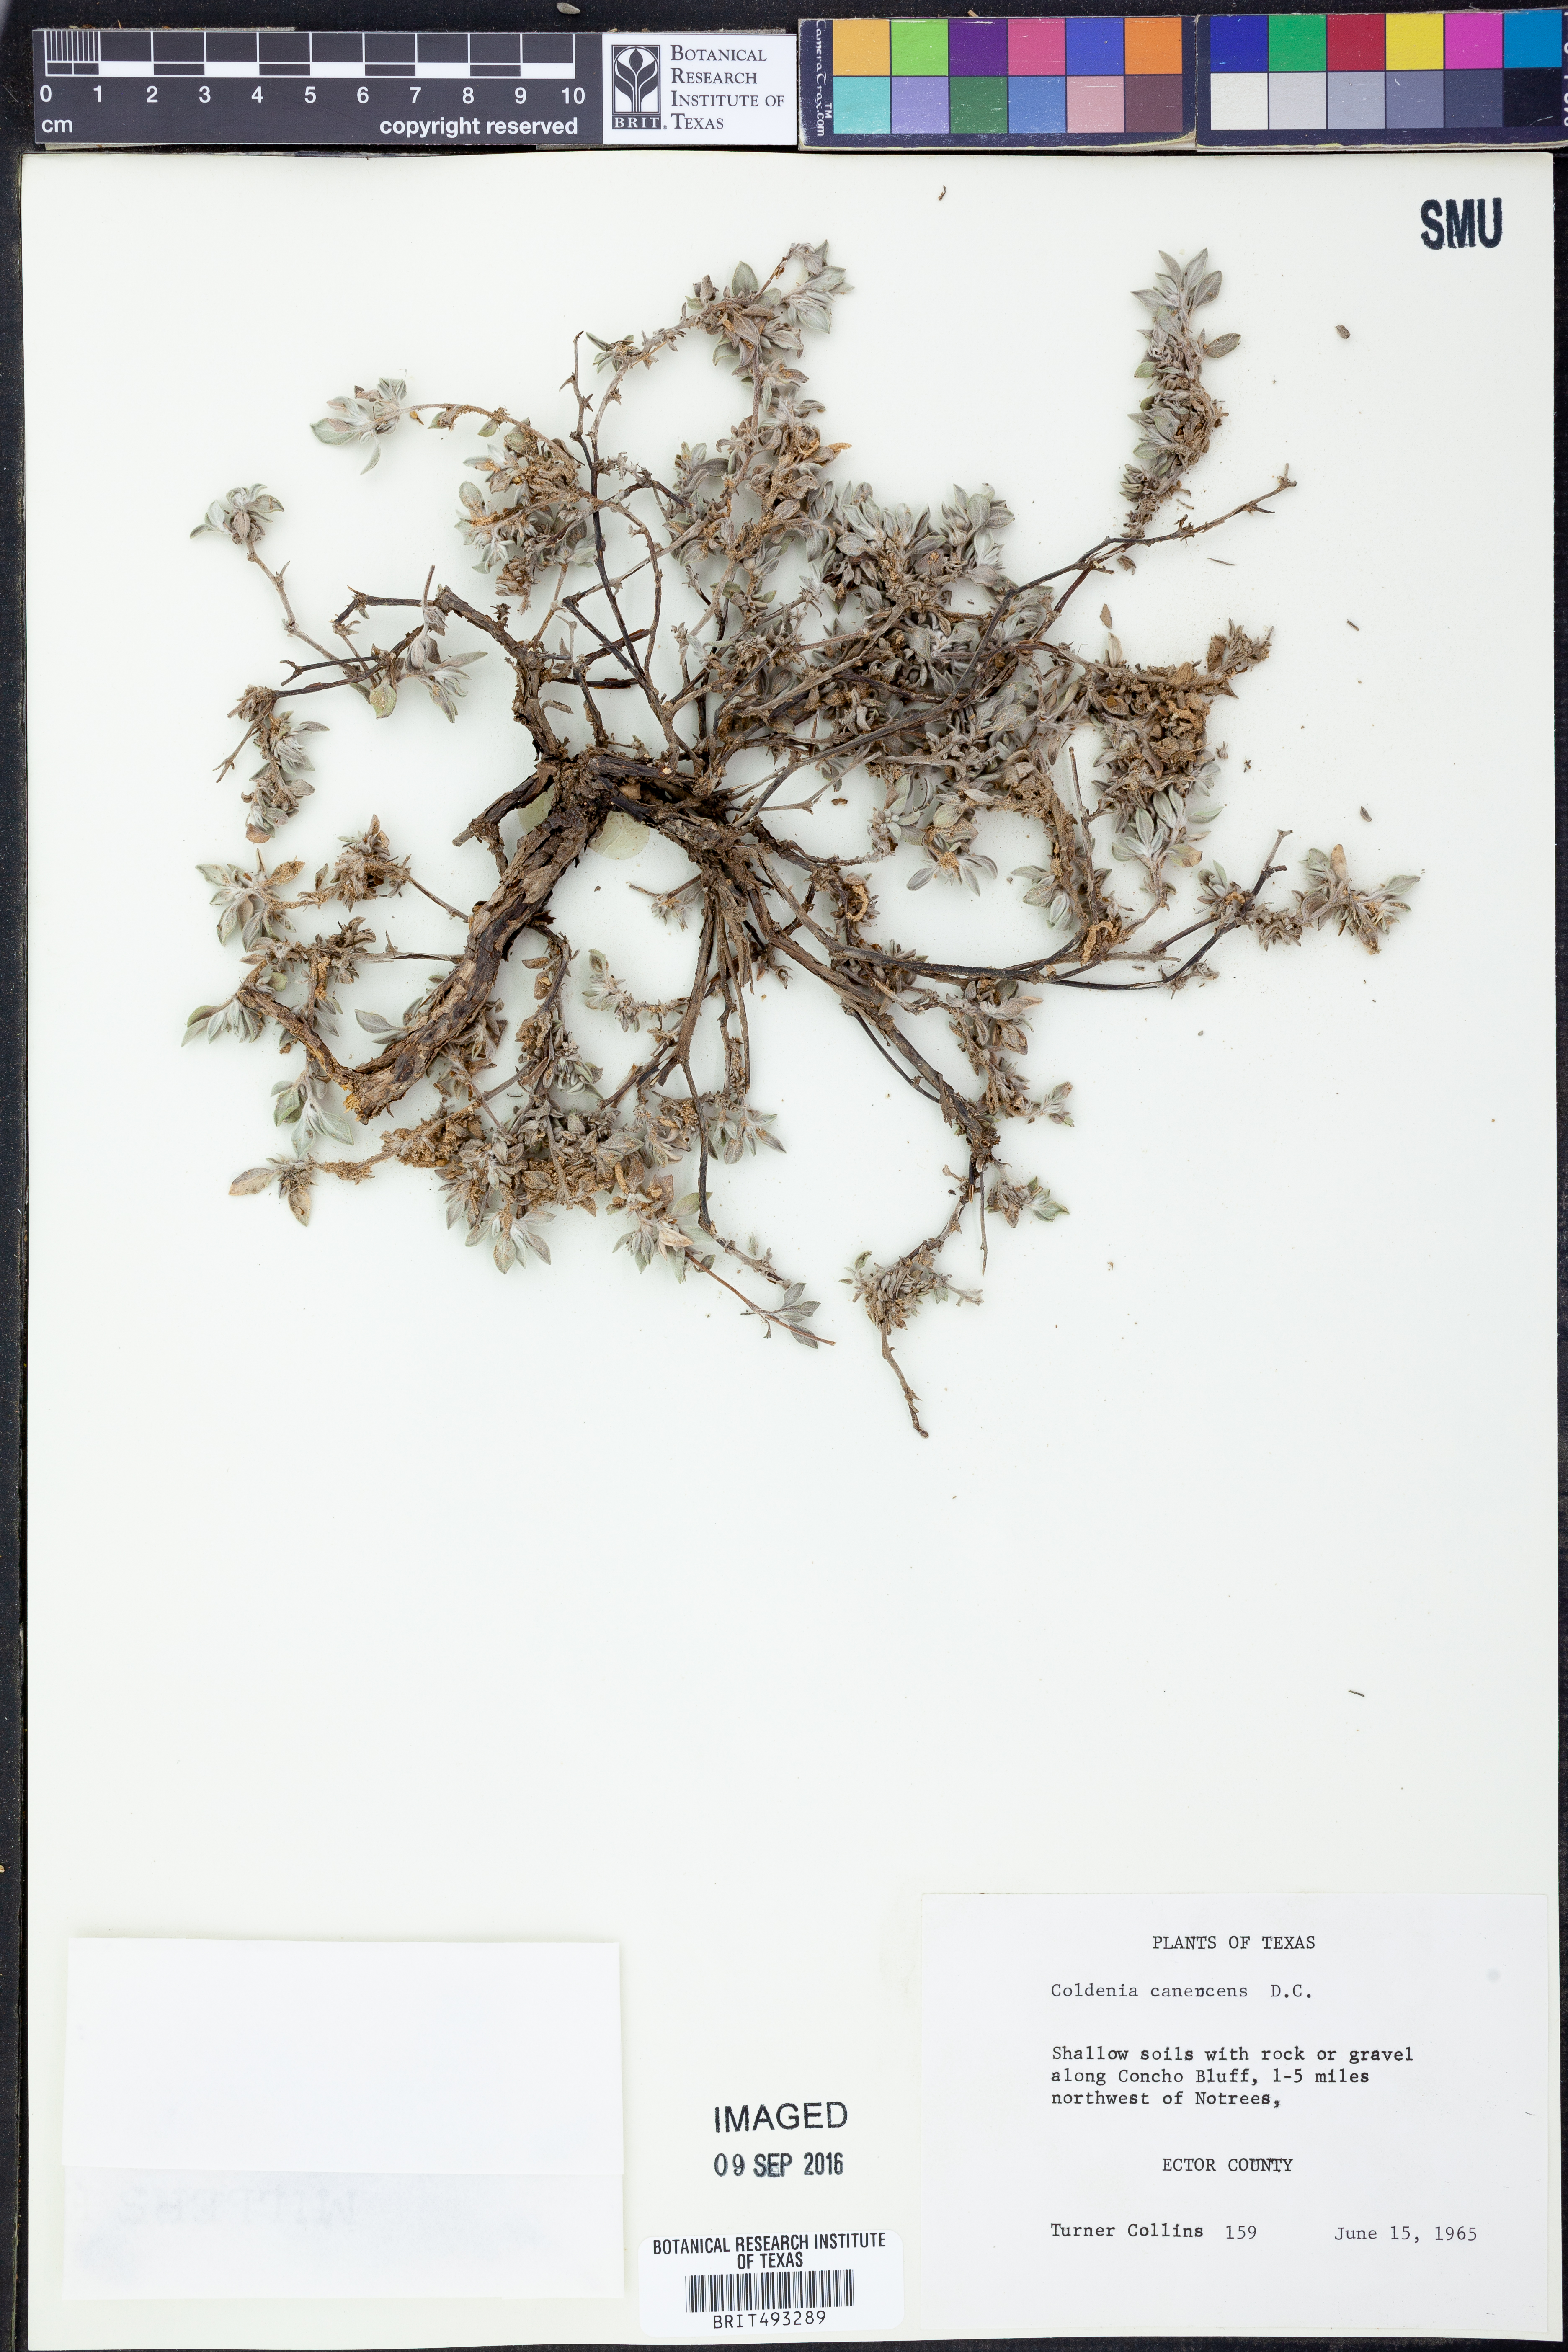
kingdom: Plantae
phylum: Tracheophyta
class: Magnoliopsida
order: Boraginales
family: Ehretiaceae
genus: Tiquilia
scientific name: Tiquilia canescens
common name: Hairy tiquilia
